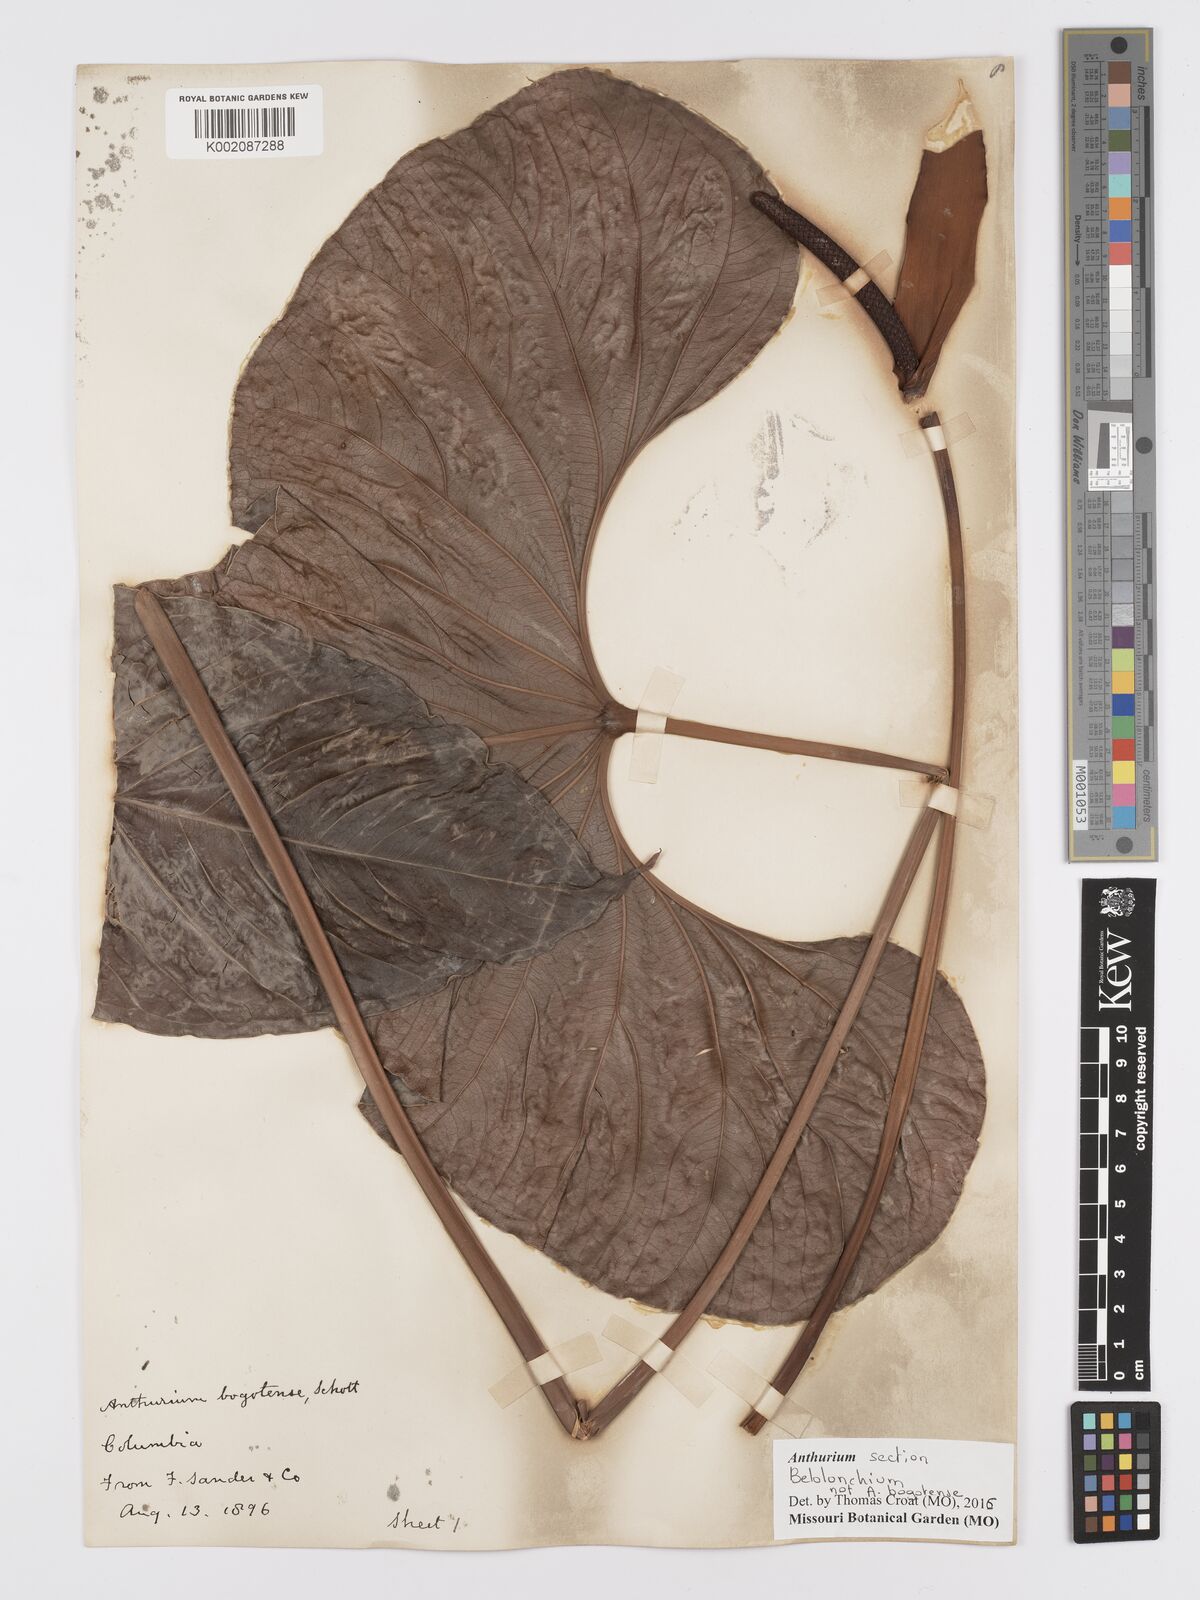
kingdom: Plantae
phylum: Tracheophyta
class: Liliopsida
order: Alismatales
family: Araceae
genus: Anthurium
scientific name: Anthurium
